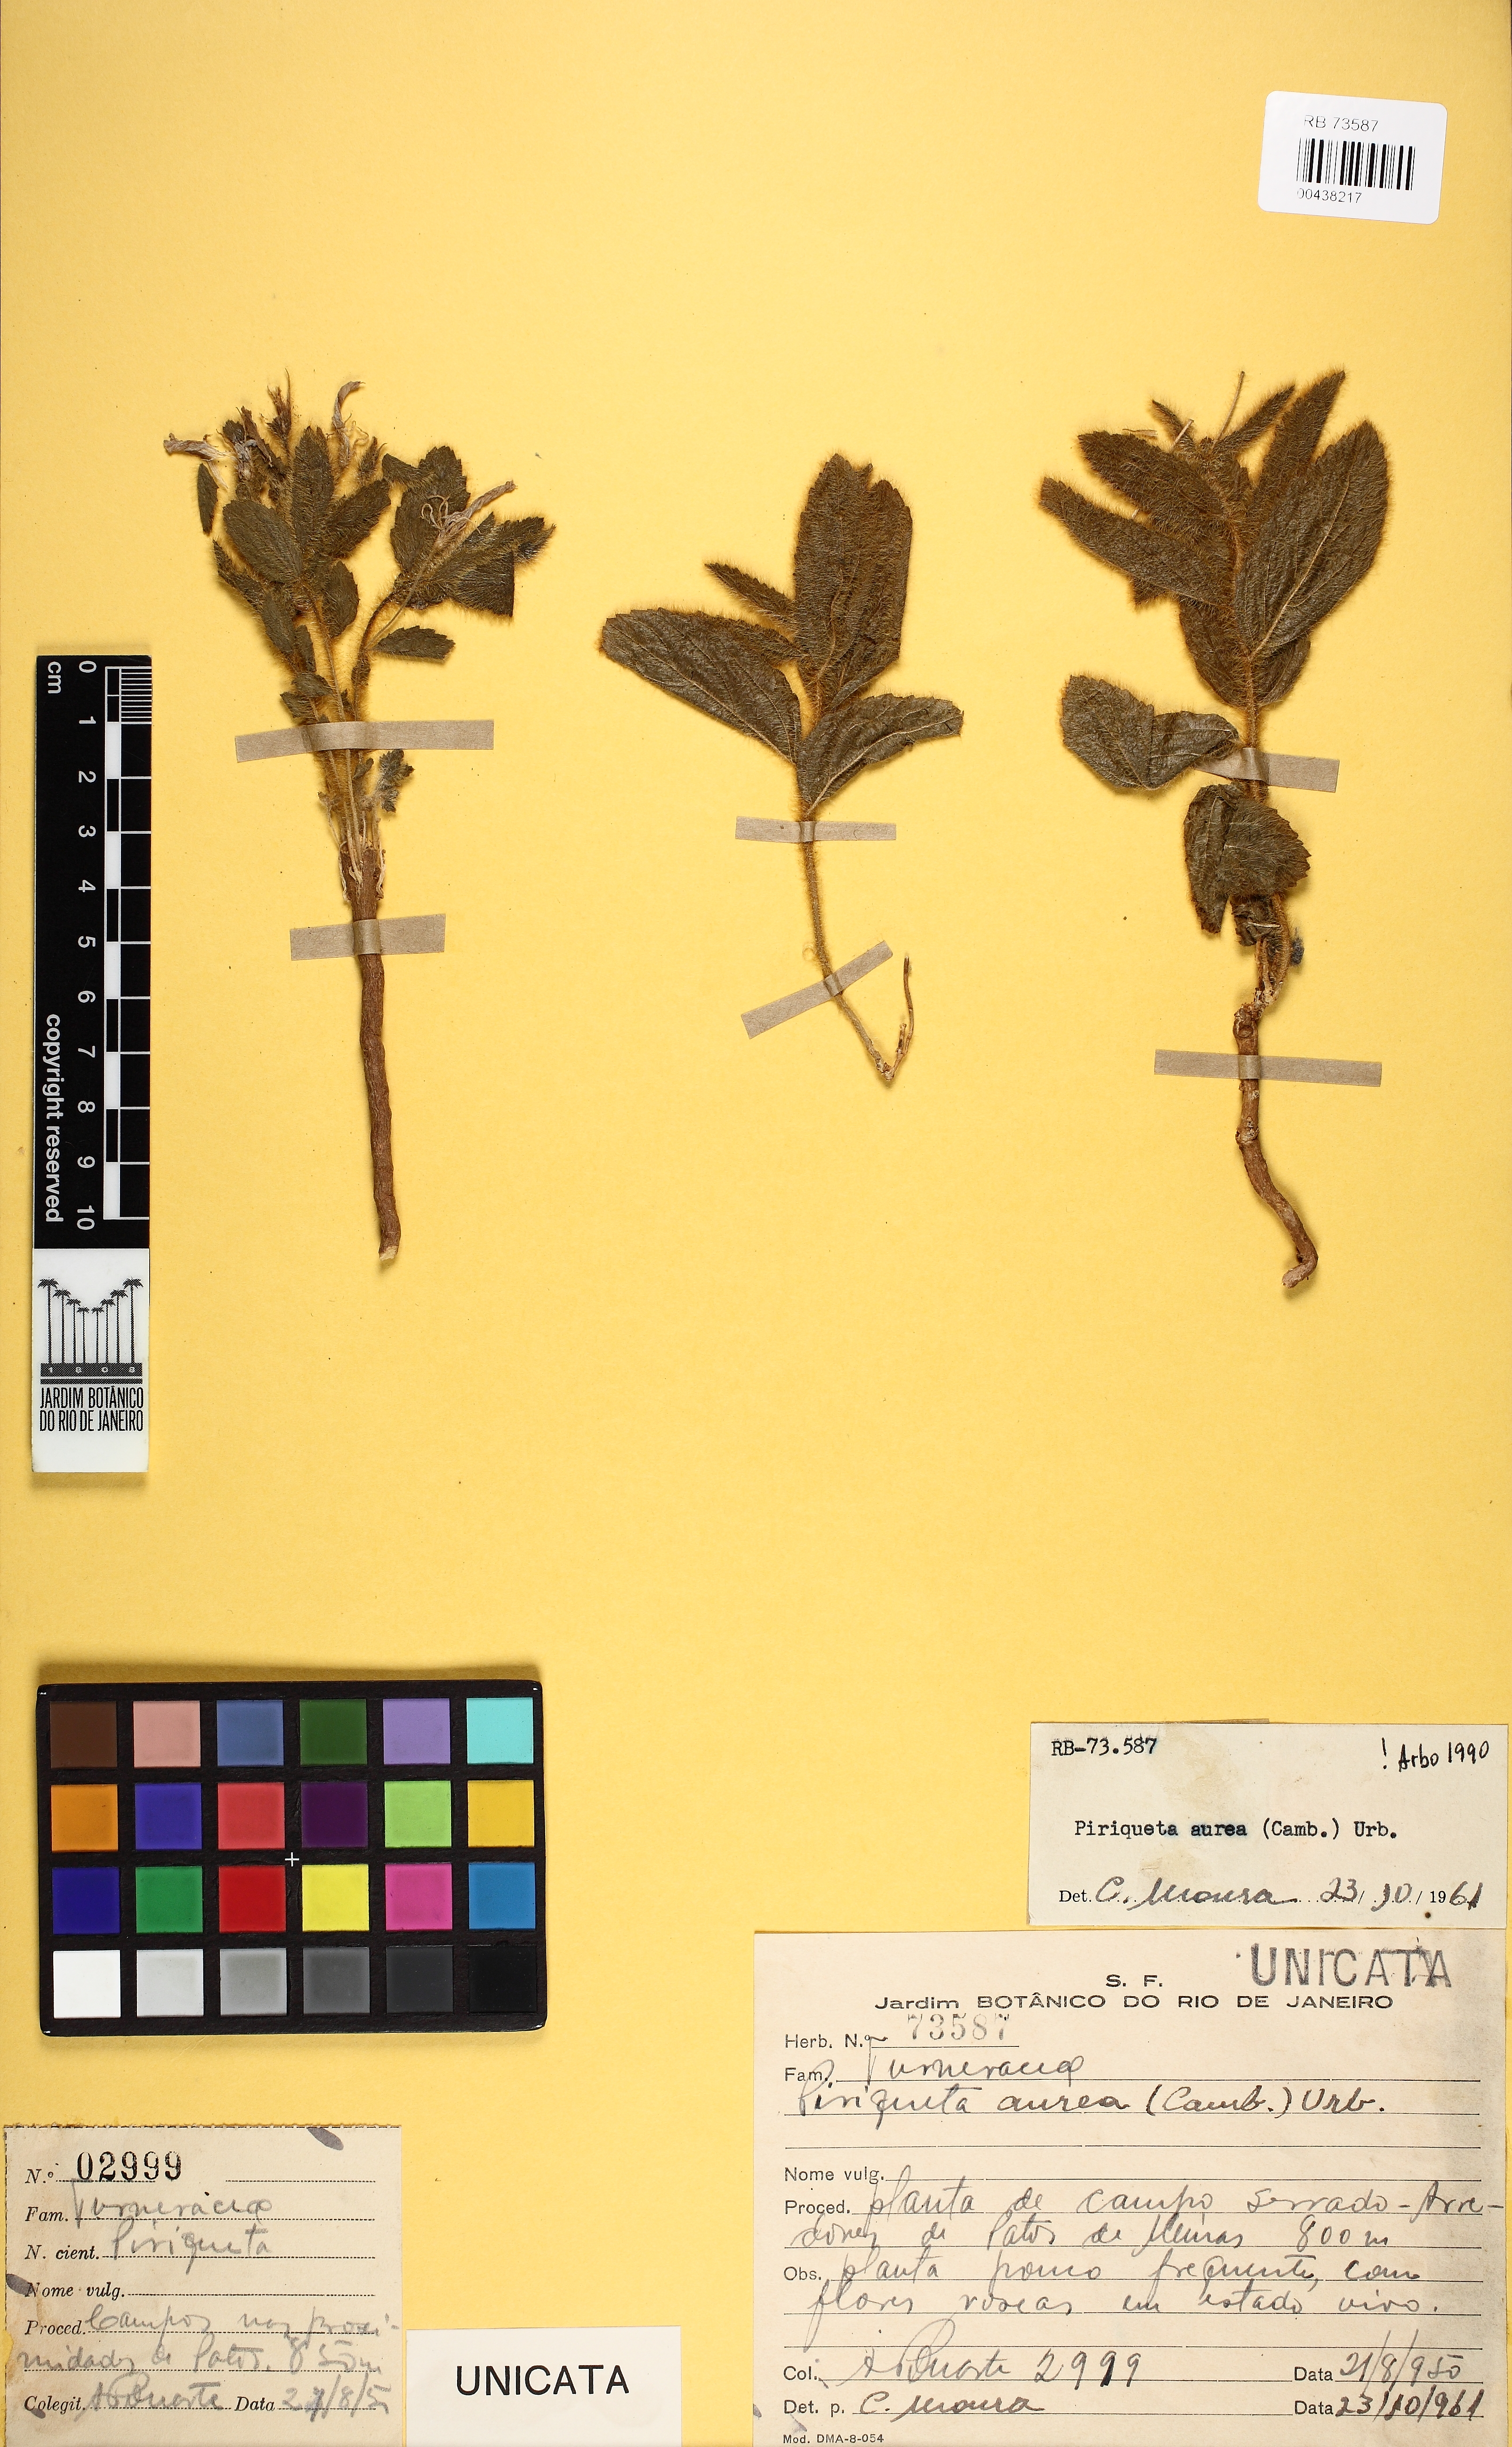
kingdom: Plantae
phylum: Tracheophyta
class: Magnoliopsida
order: Malpighiales
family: Turneraceae
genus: Piriqueta
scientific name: Piriqueta aurea
